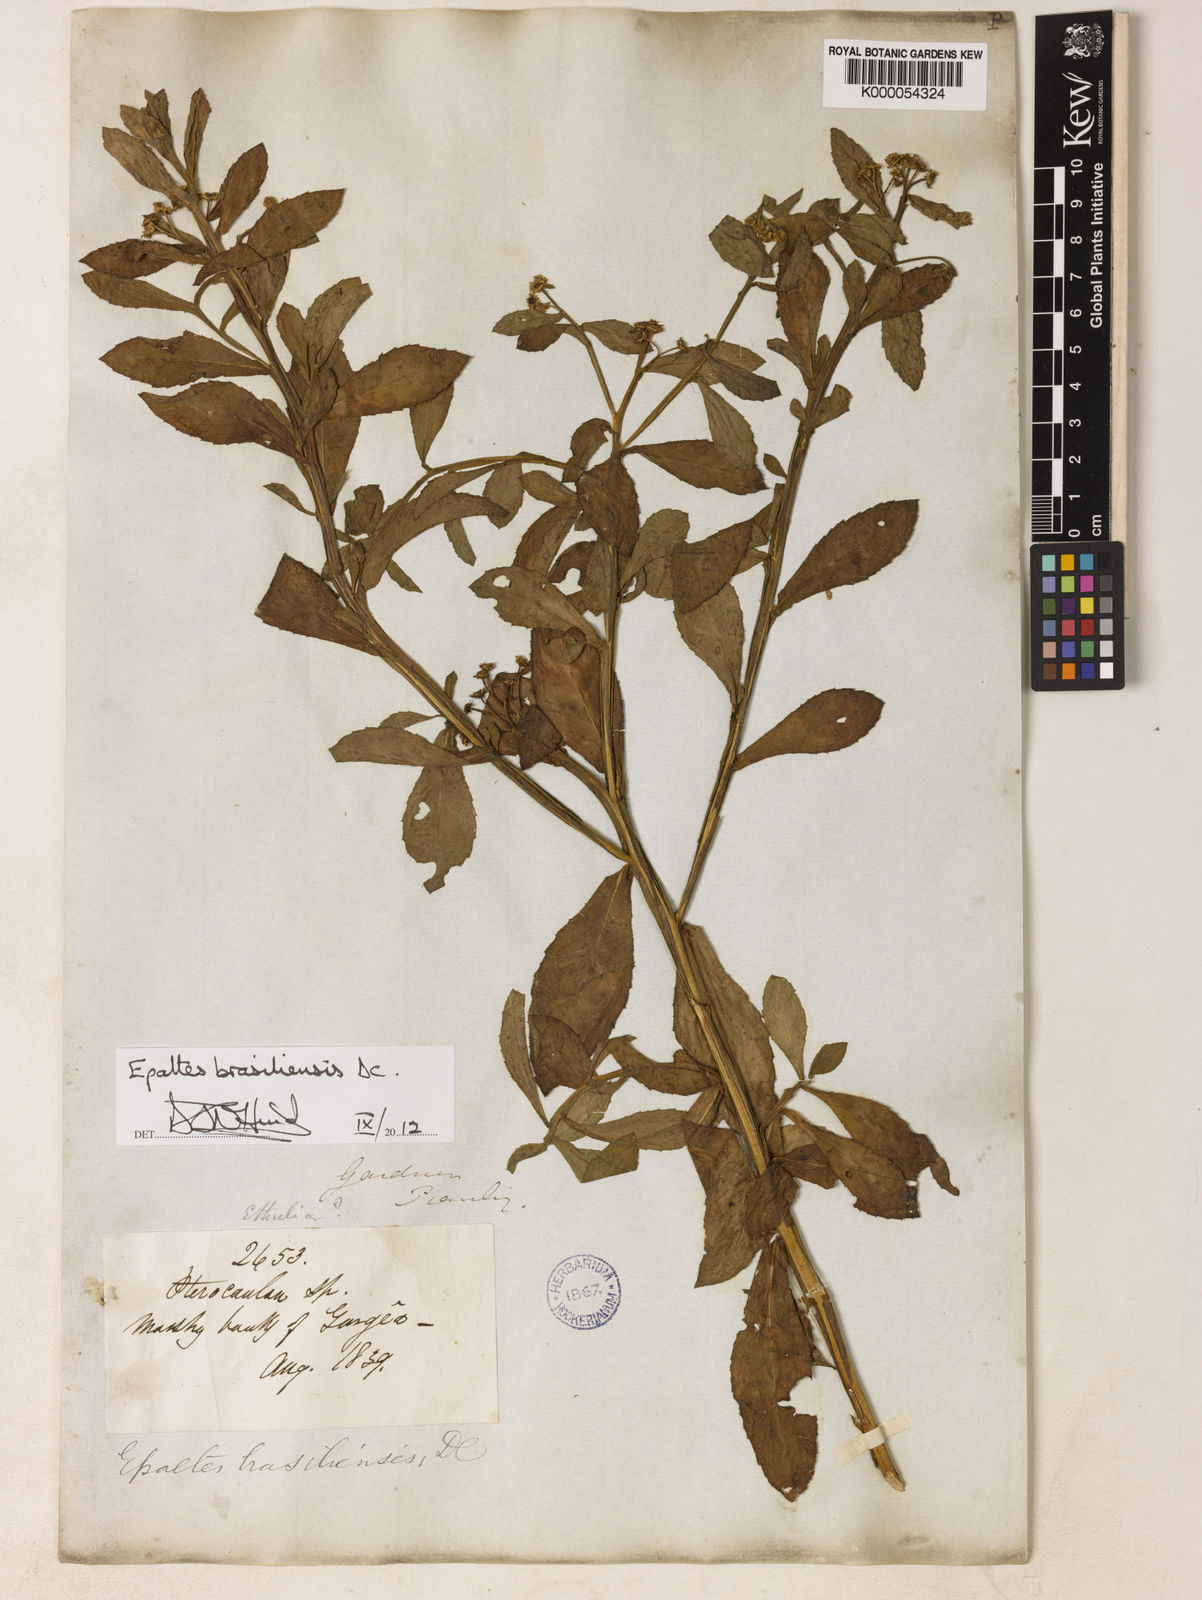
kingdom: Plantae
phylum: Tracheophyta
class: Magnoliopsida
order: Asterales
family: Asteraceae
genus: Epaltes
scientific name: Epaltes brasiliensis
